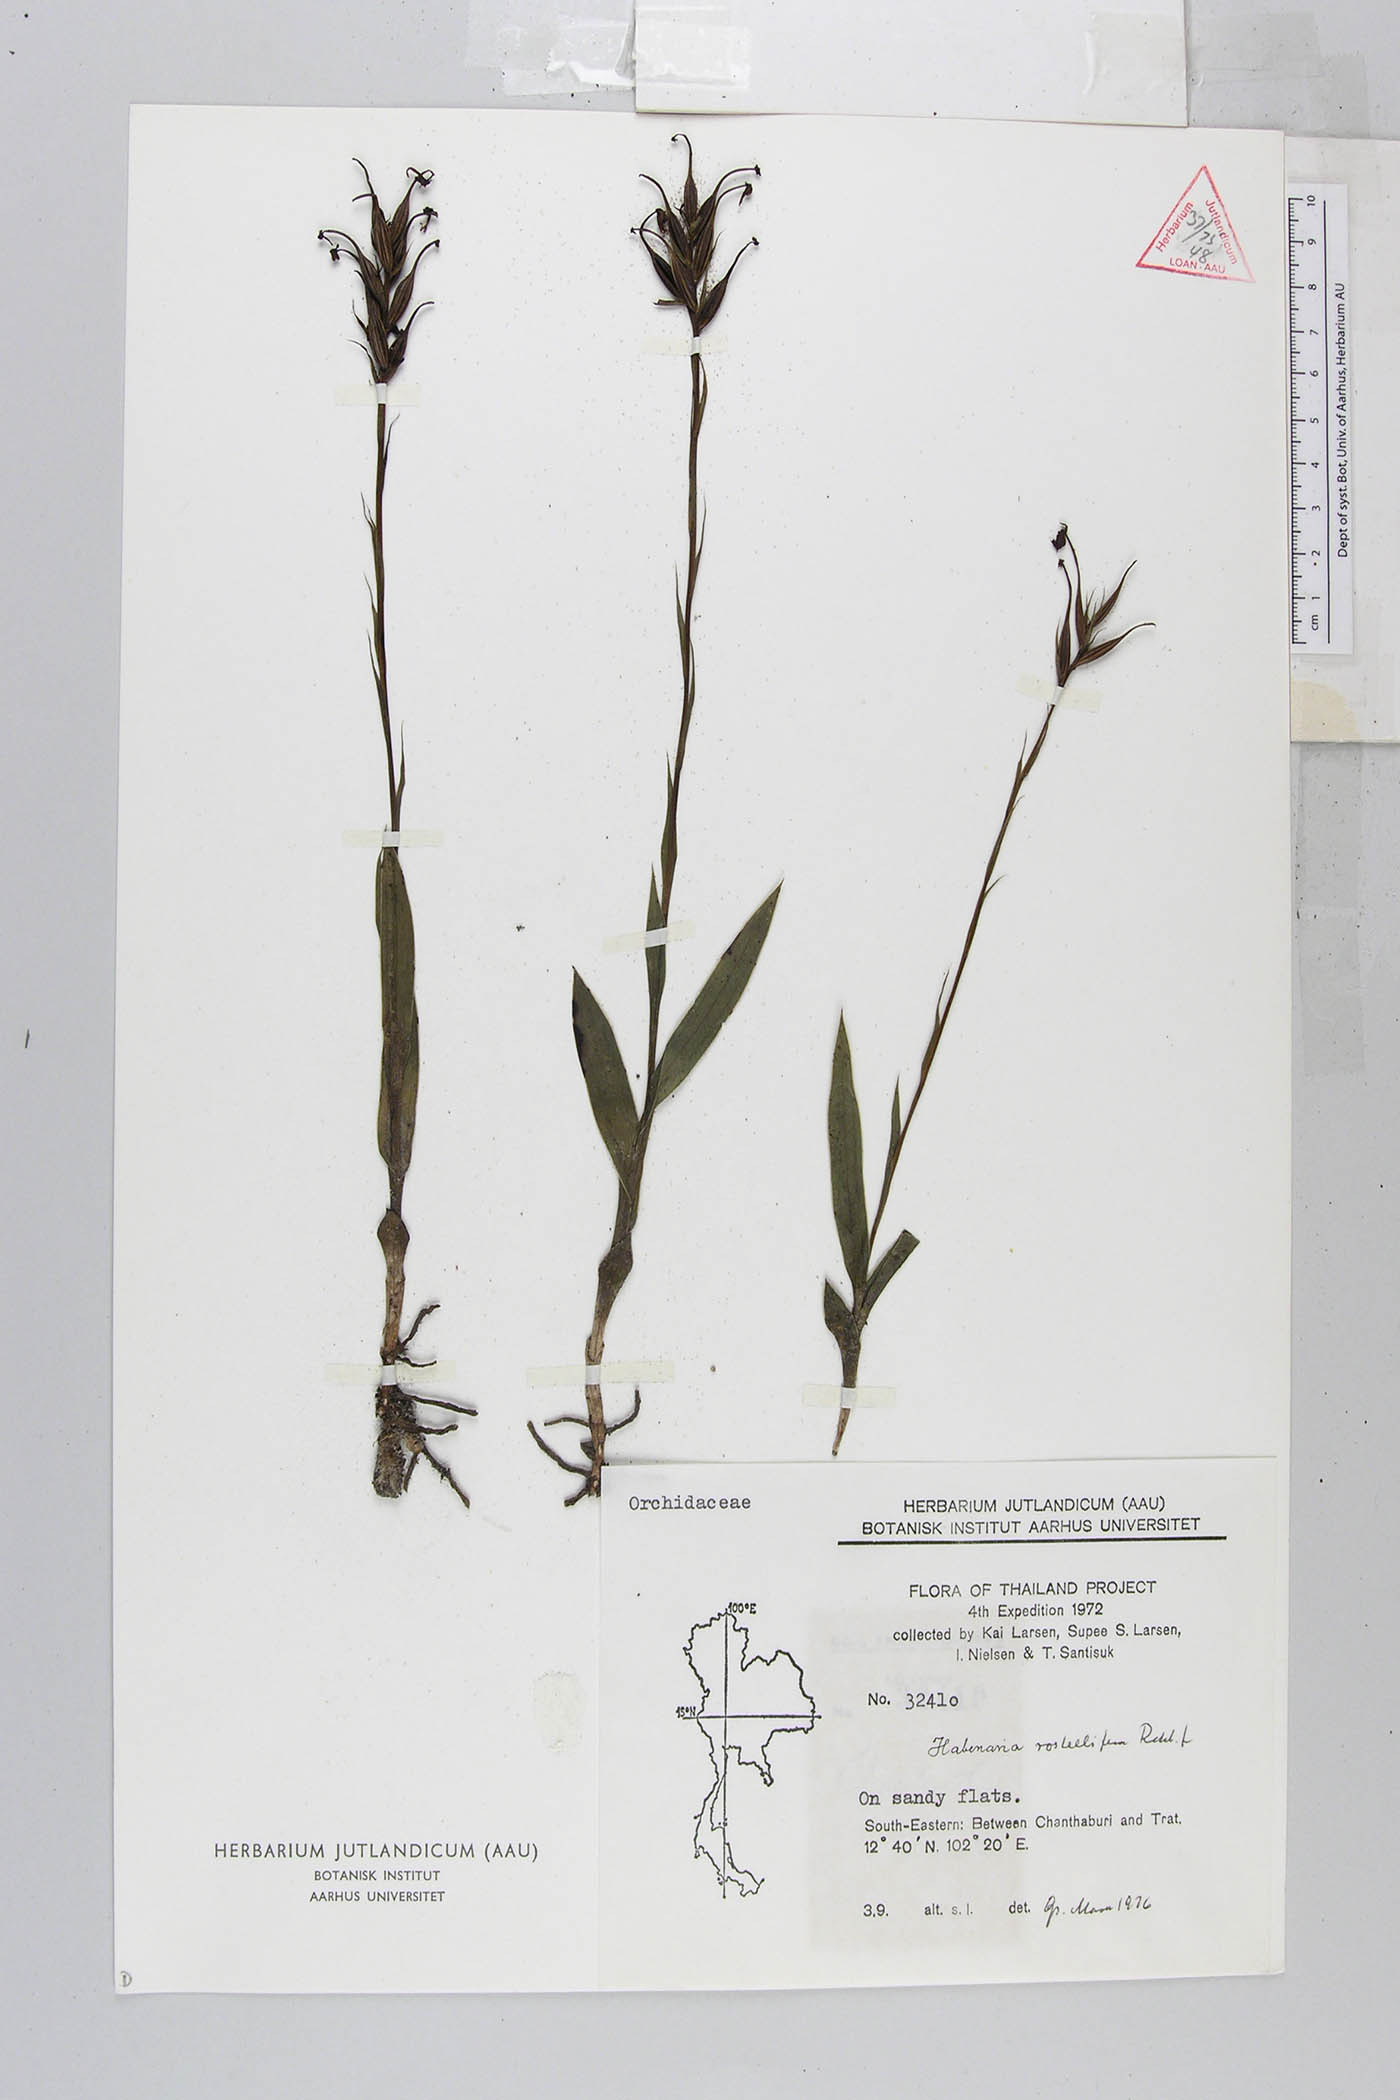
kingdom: Plantae
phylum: Tracheophyta
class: Liliopsida
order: Asparagales
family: Orchidaceae
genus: Habenaria
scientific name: Habenaria rostellifera
